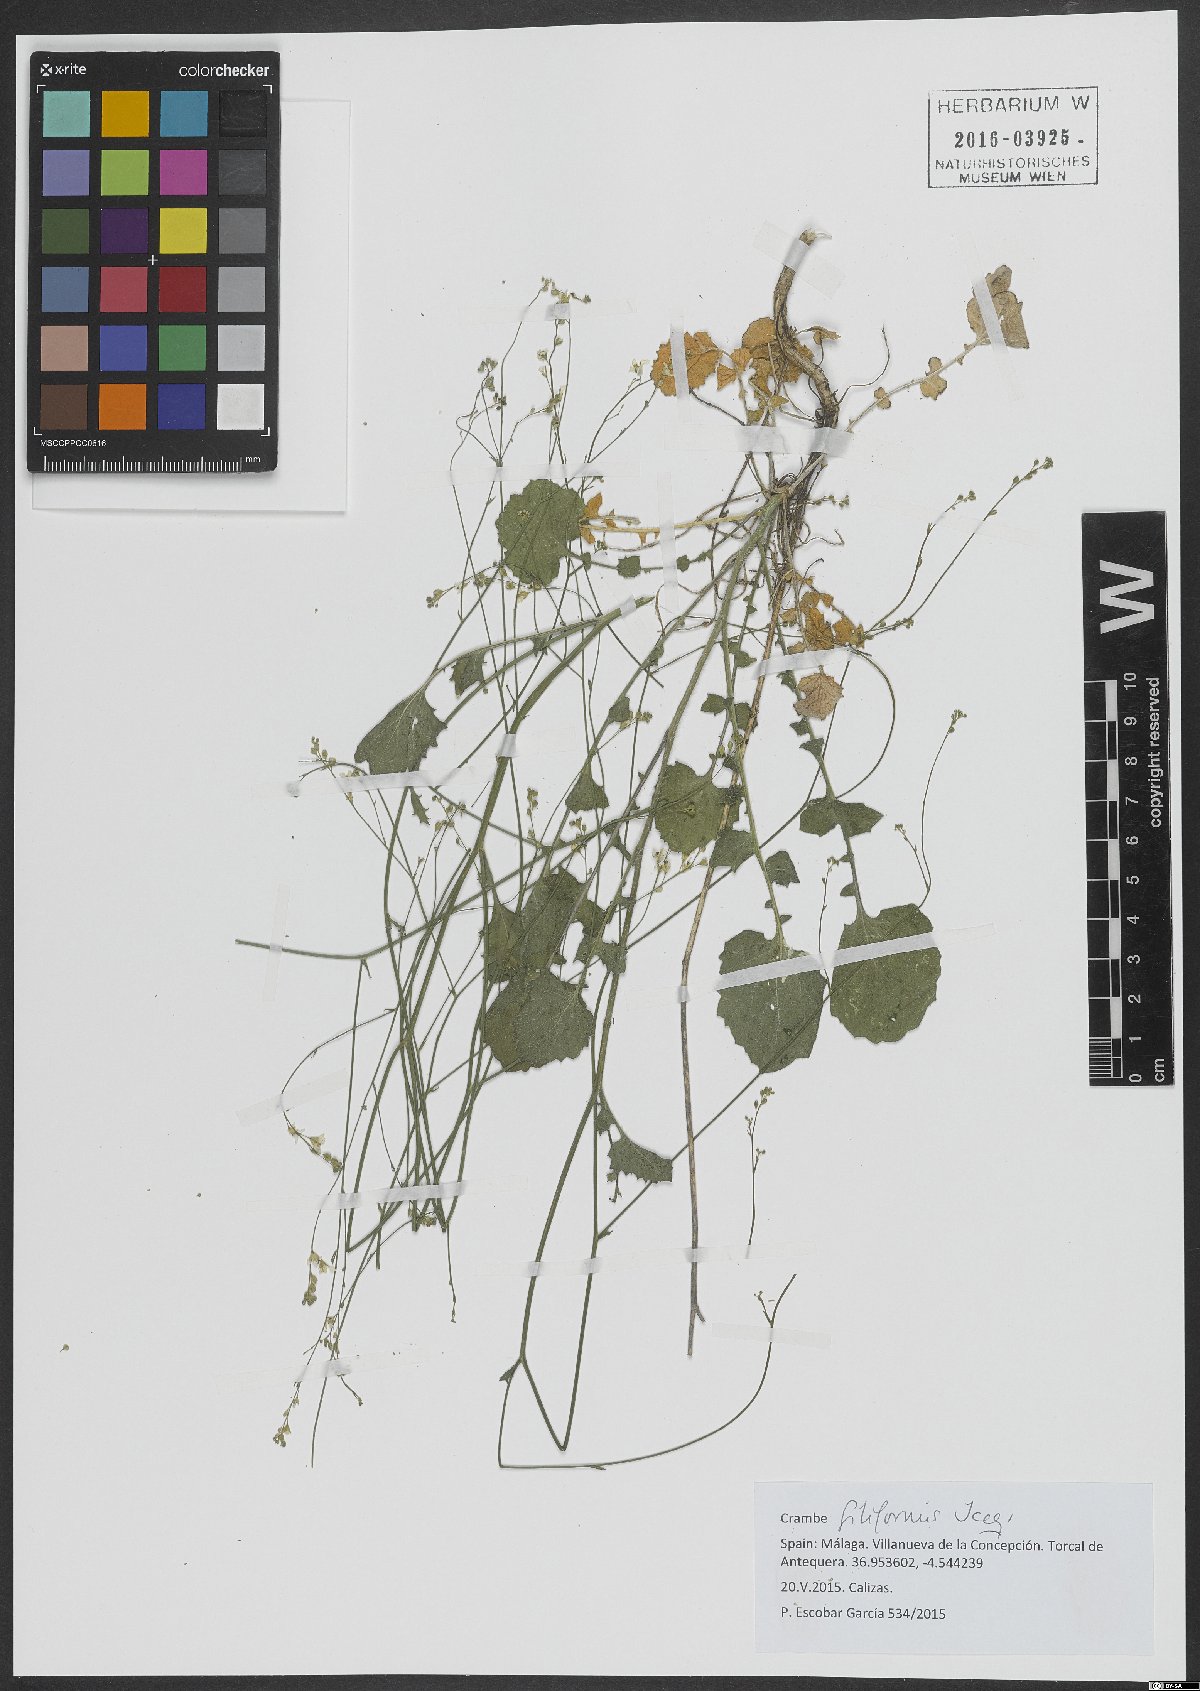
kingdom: Plantae
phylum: Tracheophyta
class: Magnoliopsida
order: Brassicales
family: Brassicaceae
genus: Crambe
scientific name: Crambe filiformis
